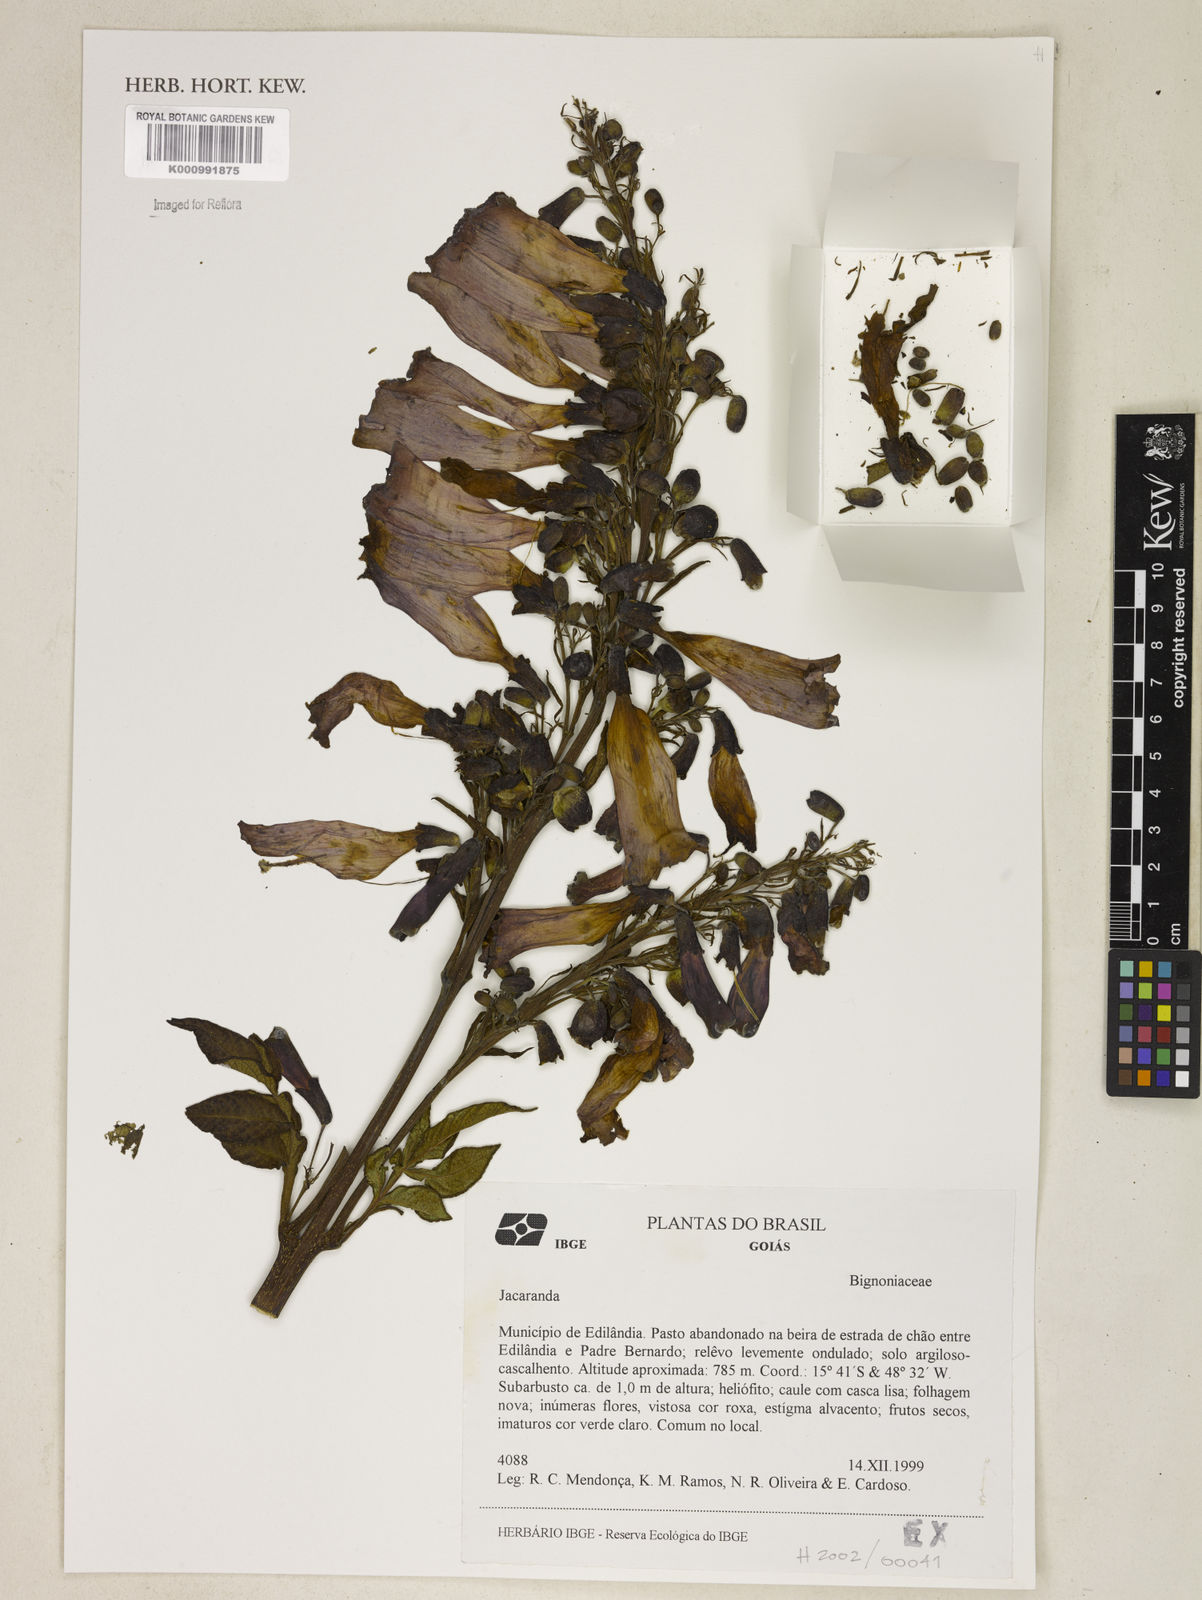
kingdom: Plantae
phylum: Tracheophyta
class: Magnoliopsida
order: Lamiales
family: Bignoniaceae
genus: Jacaranda
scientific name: Jacaranda
